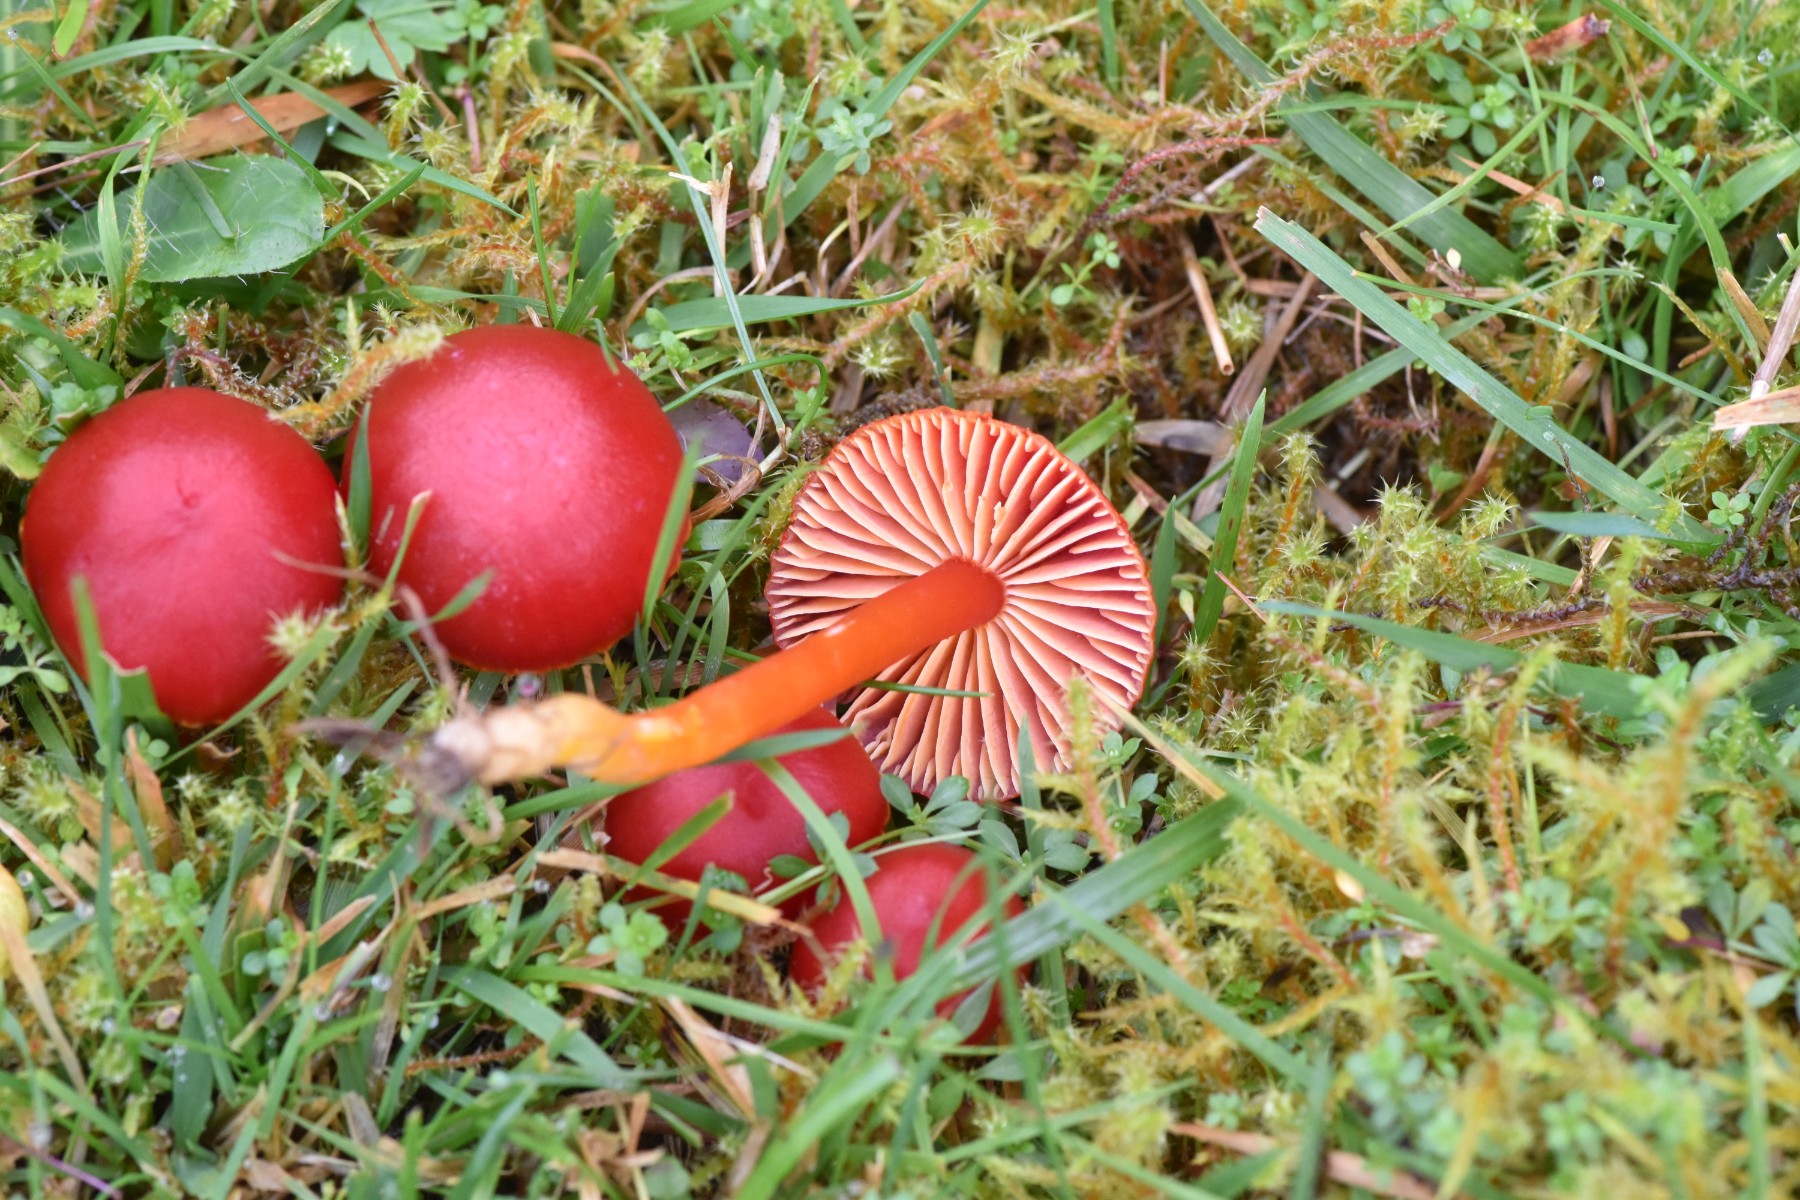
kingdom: Fungi
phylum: Basidiomycota
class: Agaricomycetes
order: Agaricales
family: Hygrophoraceae
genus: Hygrocybe
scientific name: Hygrocybe coccinea
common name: cinnober-vokshat
